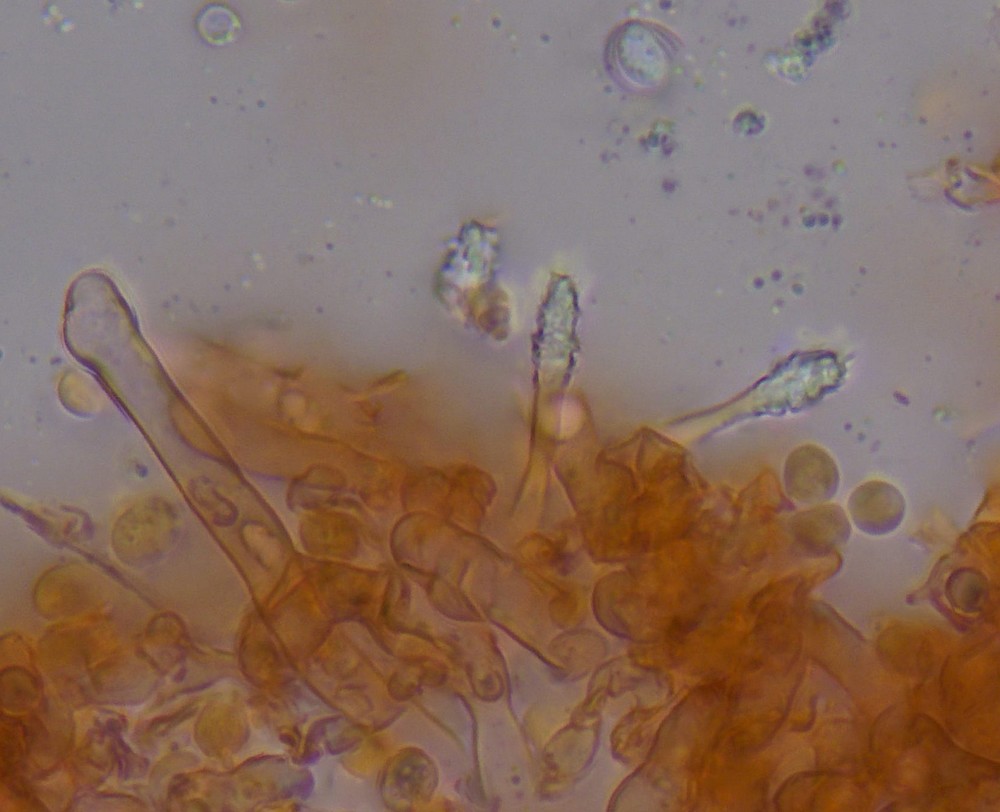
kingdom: Fungi
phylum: Basidiomycota
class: Agaricomycetes
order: Hymenochaetales
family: Hyphodontiaceae
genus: Hyphodontia
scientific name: Hyphodontia alutaria
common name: flaskerenser-nålehinde
